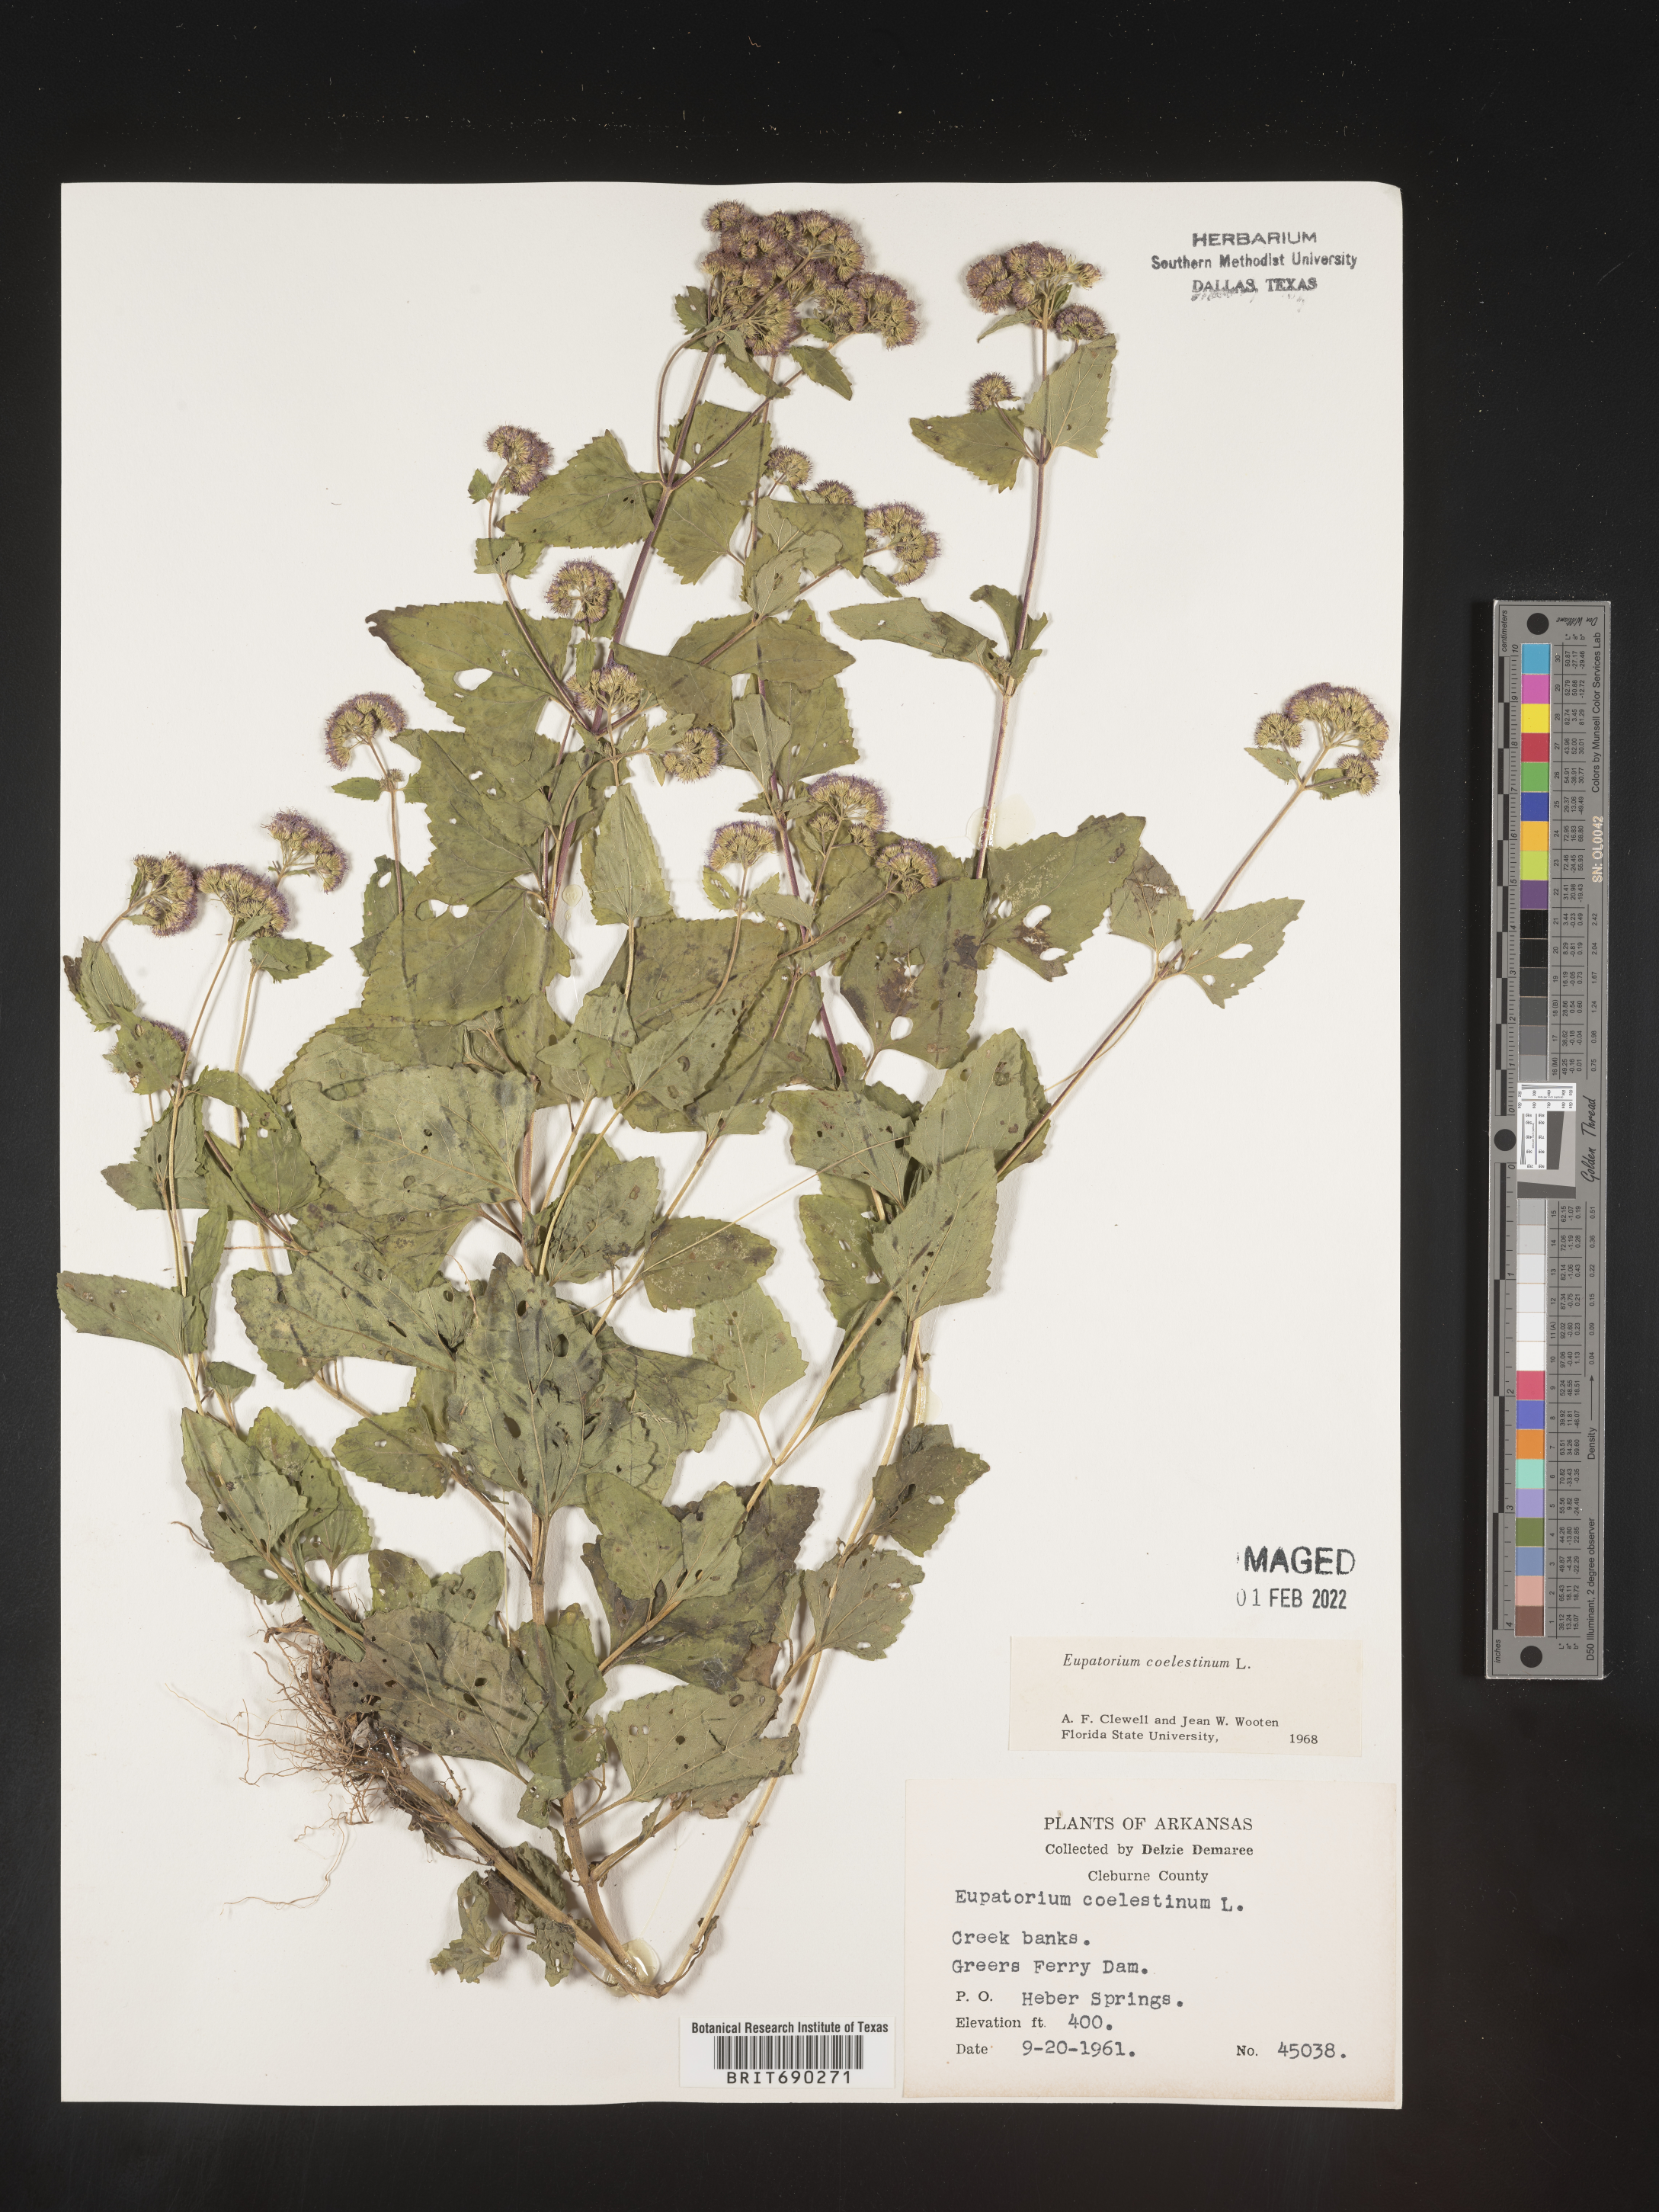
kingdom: Plantae
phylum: Tracheophyta
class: Magnoliopsida
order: Asterales
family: Asteraceae
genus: Conoclinium
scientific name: Conoclinium coelestinum
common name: Blue mistflower
